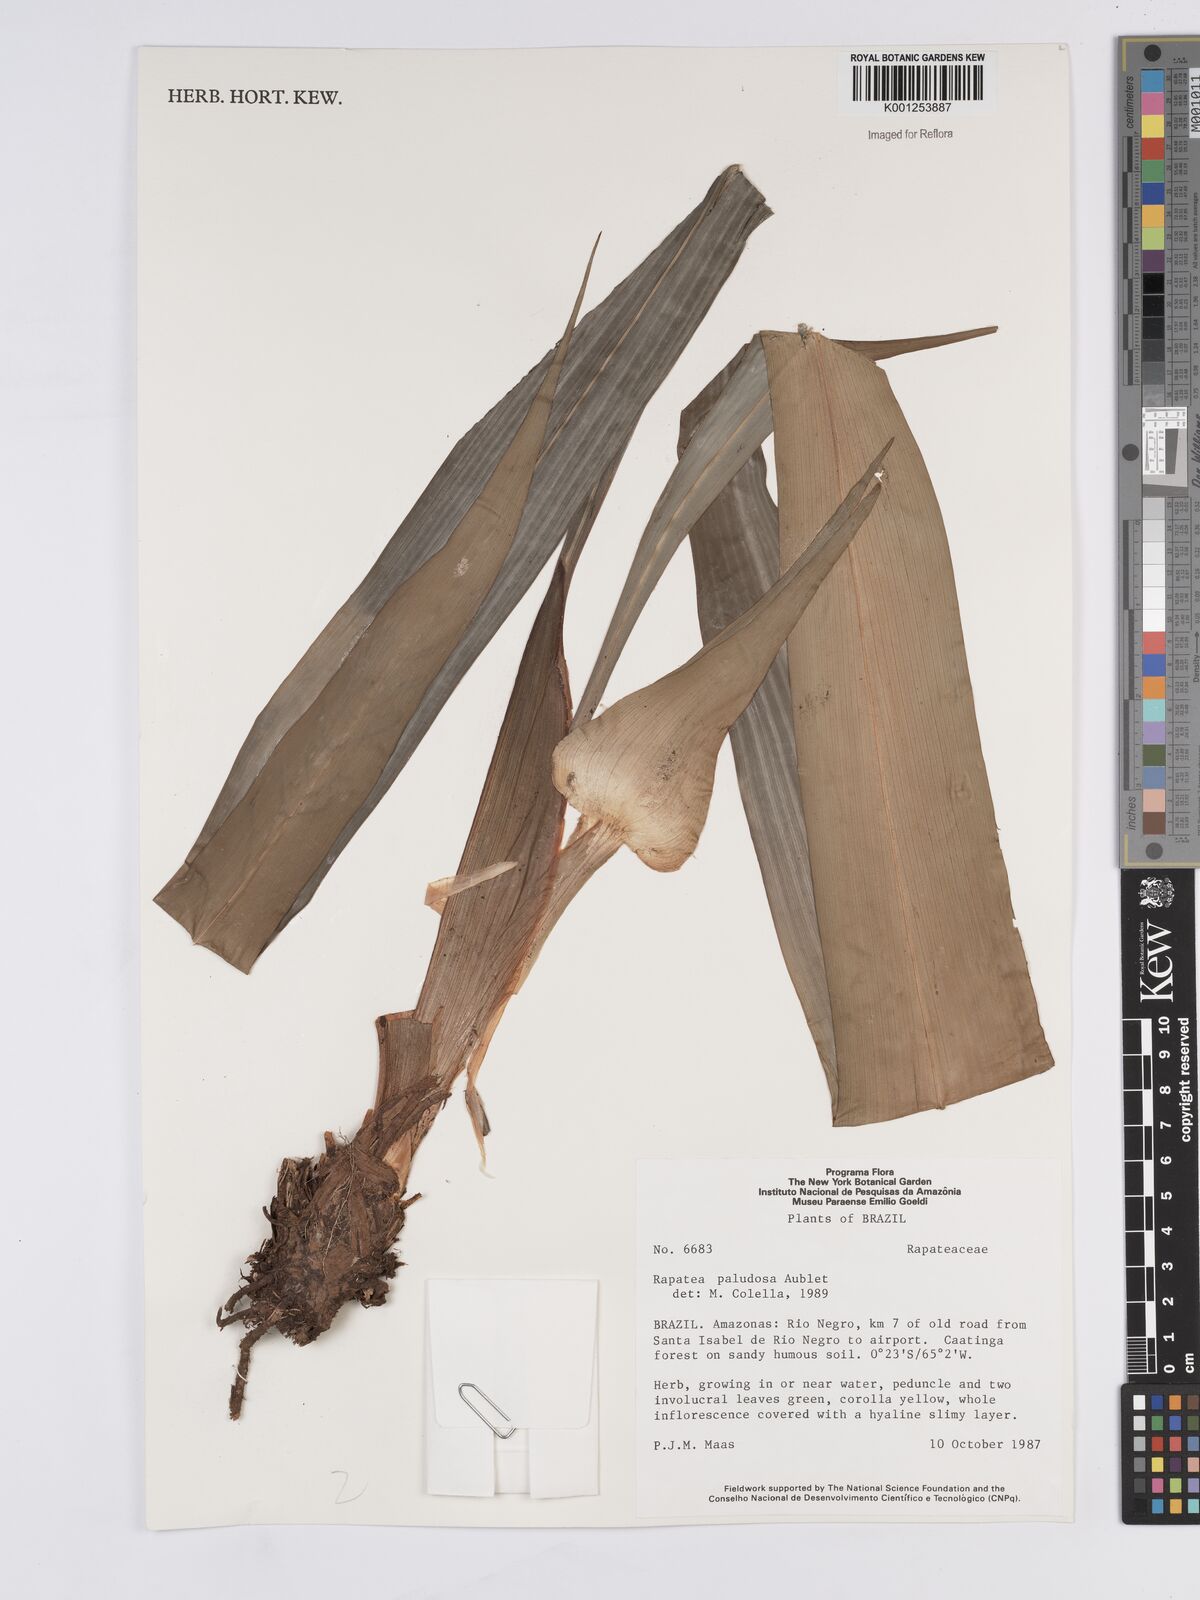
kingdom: Plantae
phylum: Tracheophyta
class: Liliopsida
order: Poales
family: Rapateaceae
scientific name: Rapateaceae
